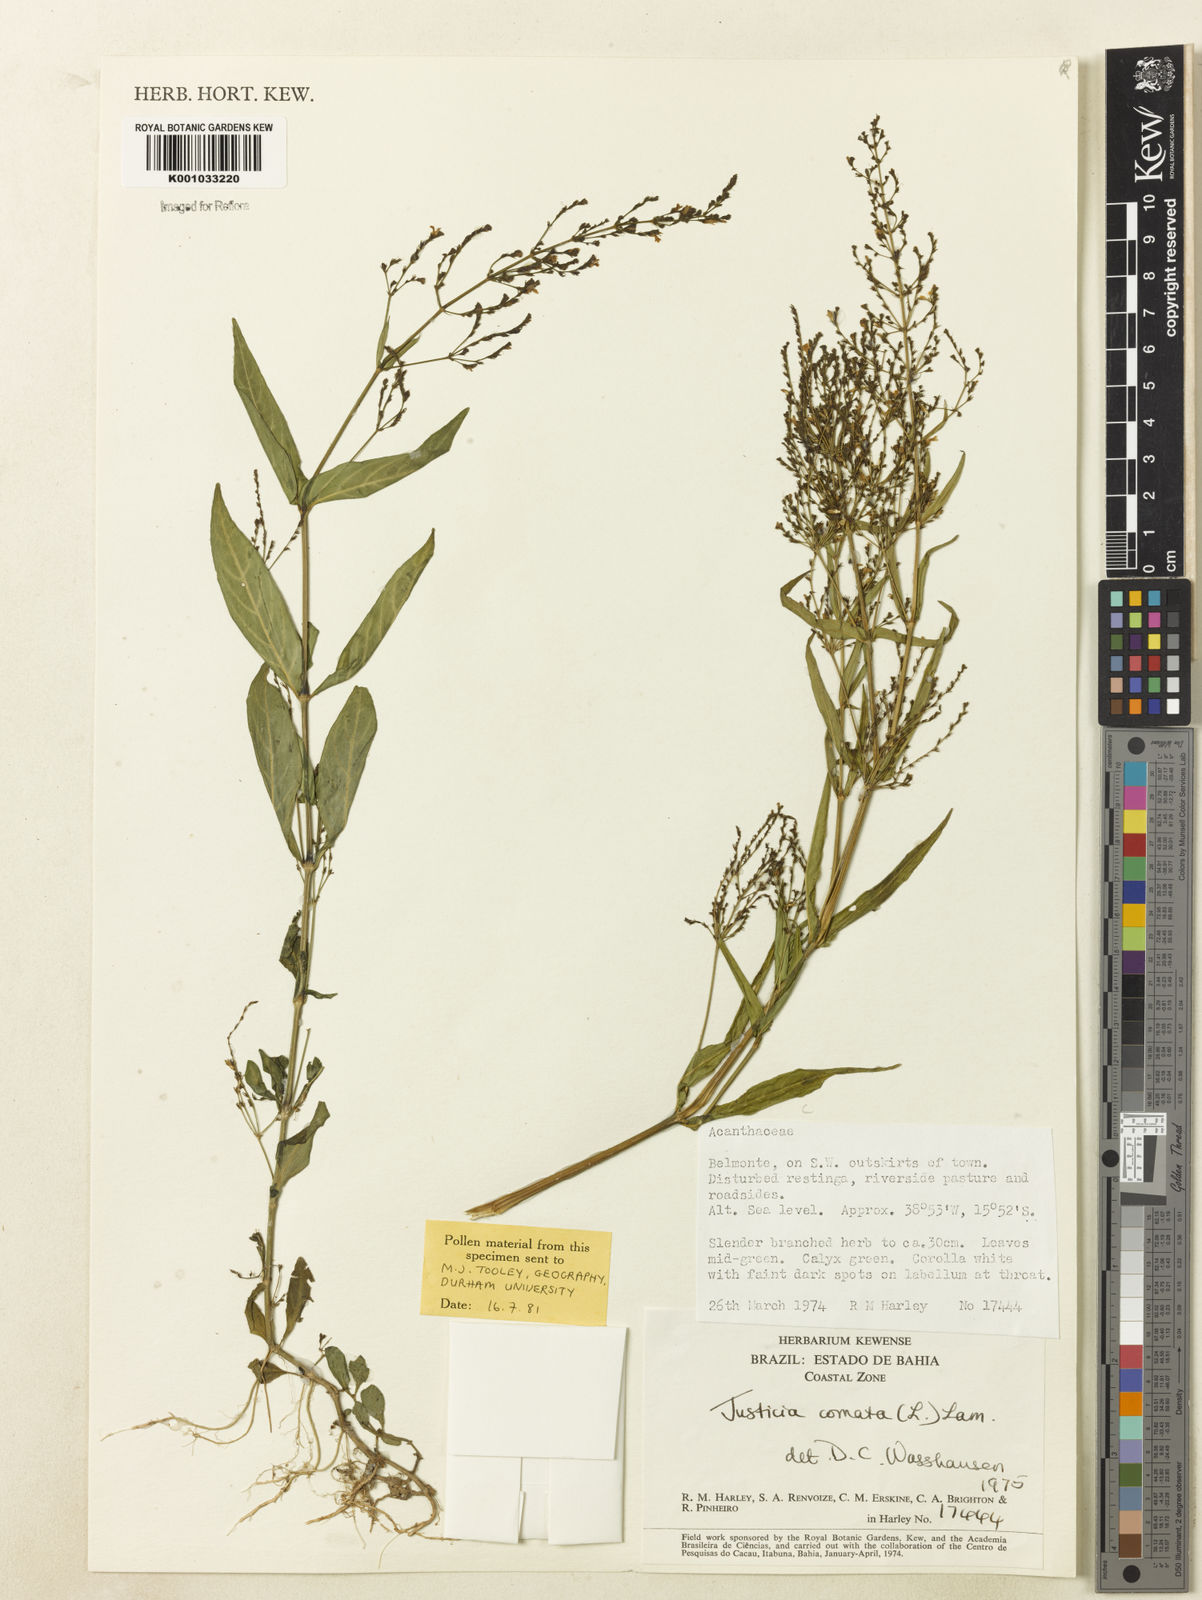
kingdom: Plantae
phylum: Tracheophyta
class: Magnoliopsida
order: Lamiales
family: Acanthaceae
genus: Dianthera
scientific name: Dianthera comata
